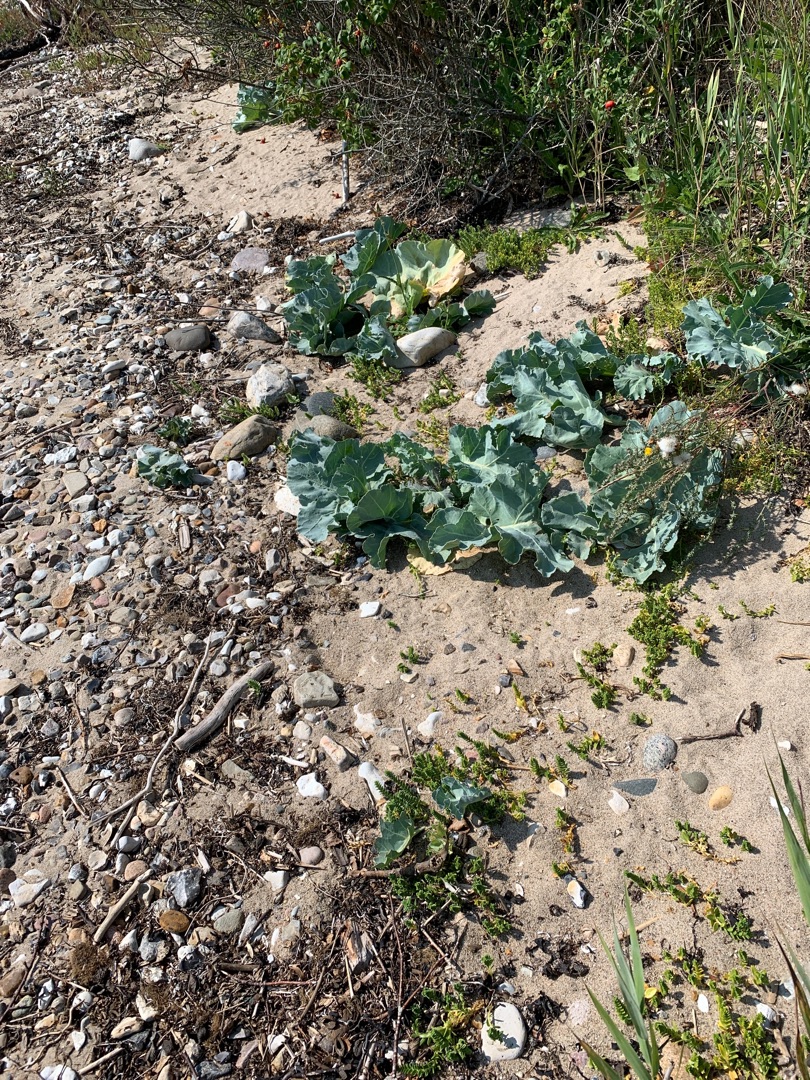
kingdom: Plantae
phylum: Tracheophyta
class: Magnoliopsida
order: Brassicales
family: Brassicaceae
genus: Crambe
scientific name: Crambe maritima
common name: Strandkål
